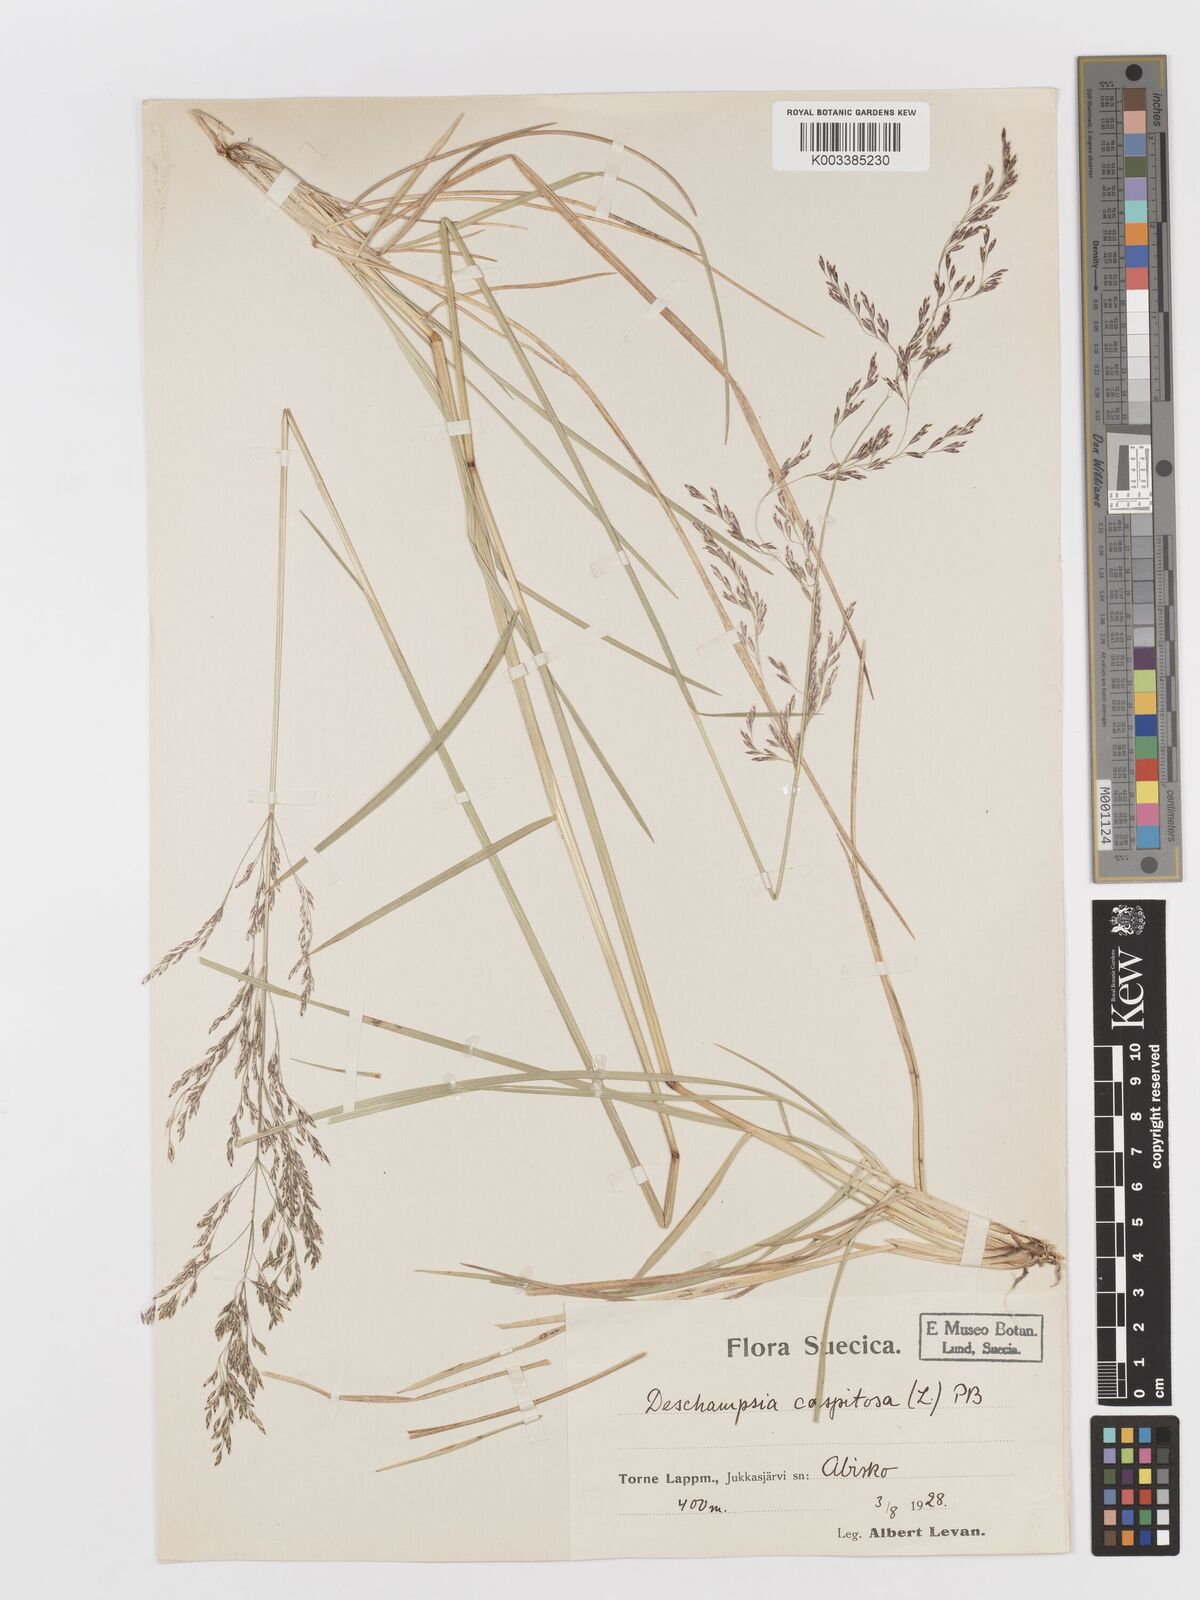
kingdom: Plantae
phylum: Tracheophyta
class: Liliopsida
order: Poales
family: Poaceae
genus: Deschampsia
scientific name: Deschampsia cespitosa
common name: Tufted hair-grass
